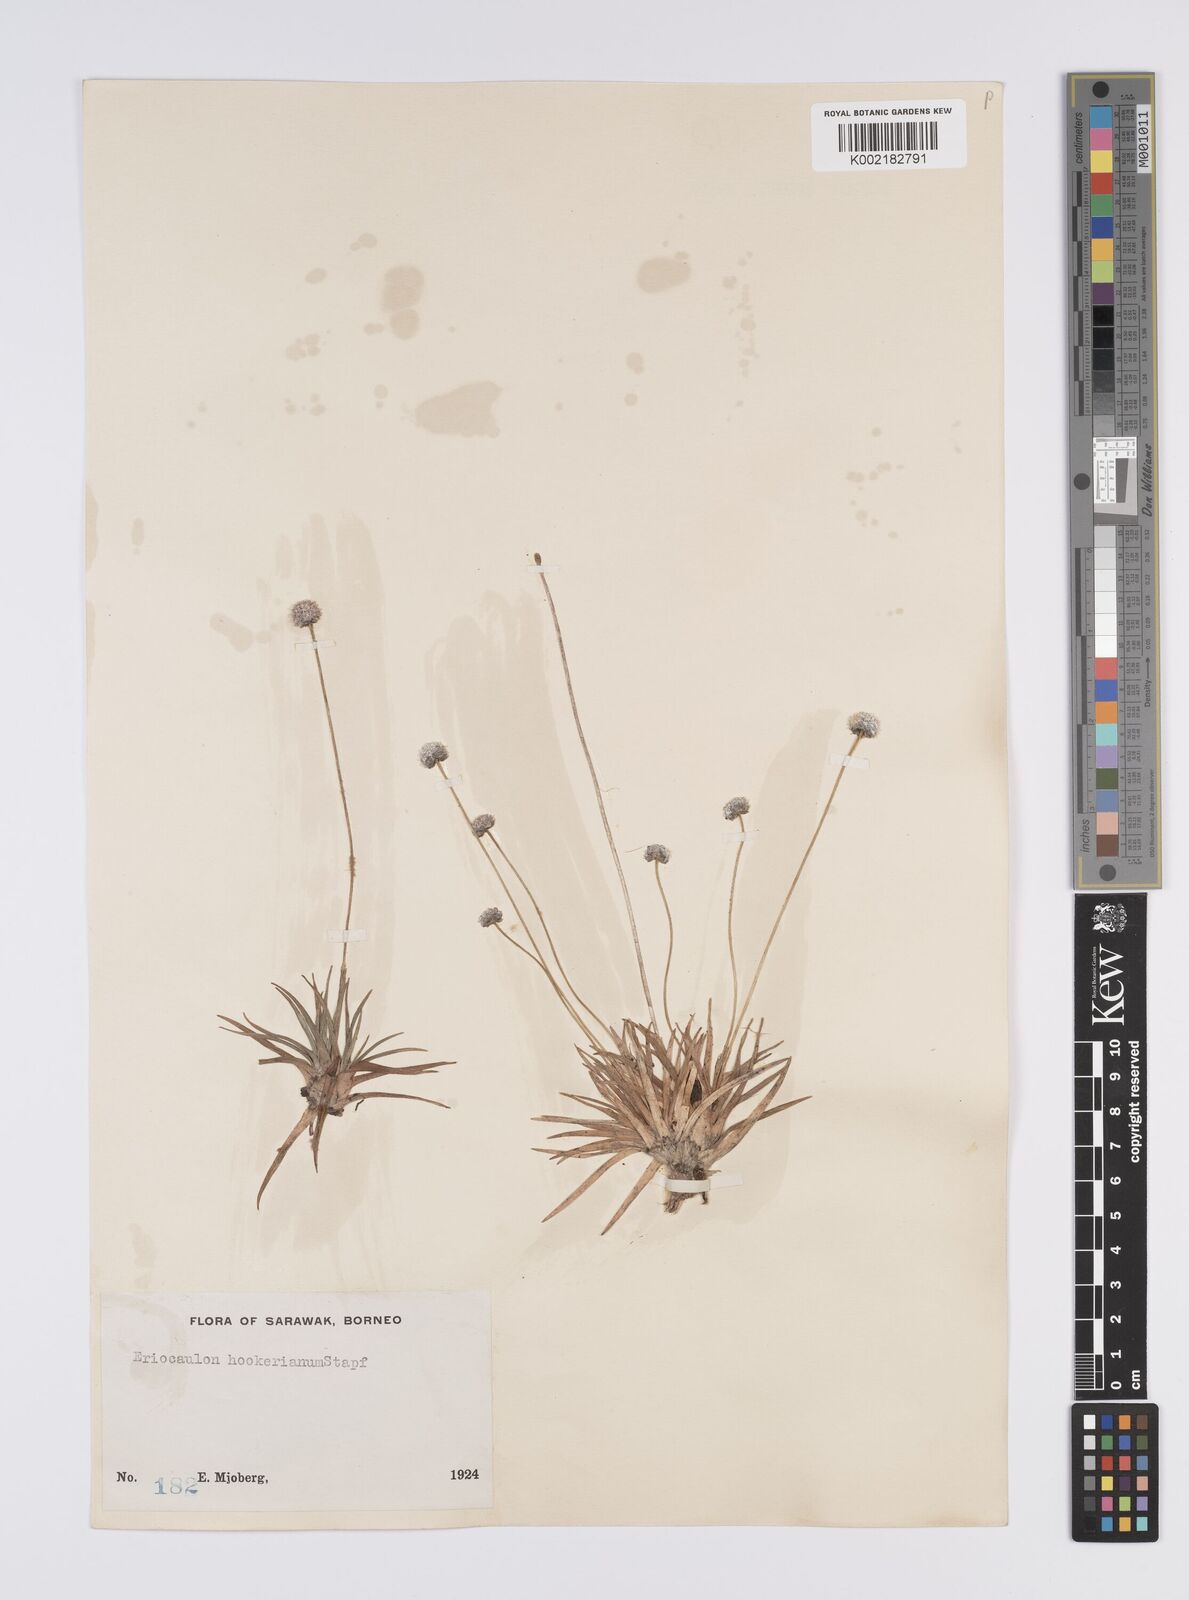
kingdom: Plantae
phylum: Tracheophyta
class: Liliopsida
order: Poales
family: Eriocaulaceae
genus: Eriocaulon
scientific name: Eriocaulon hookerianum
